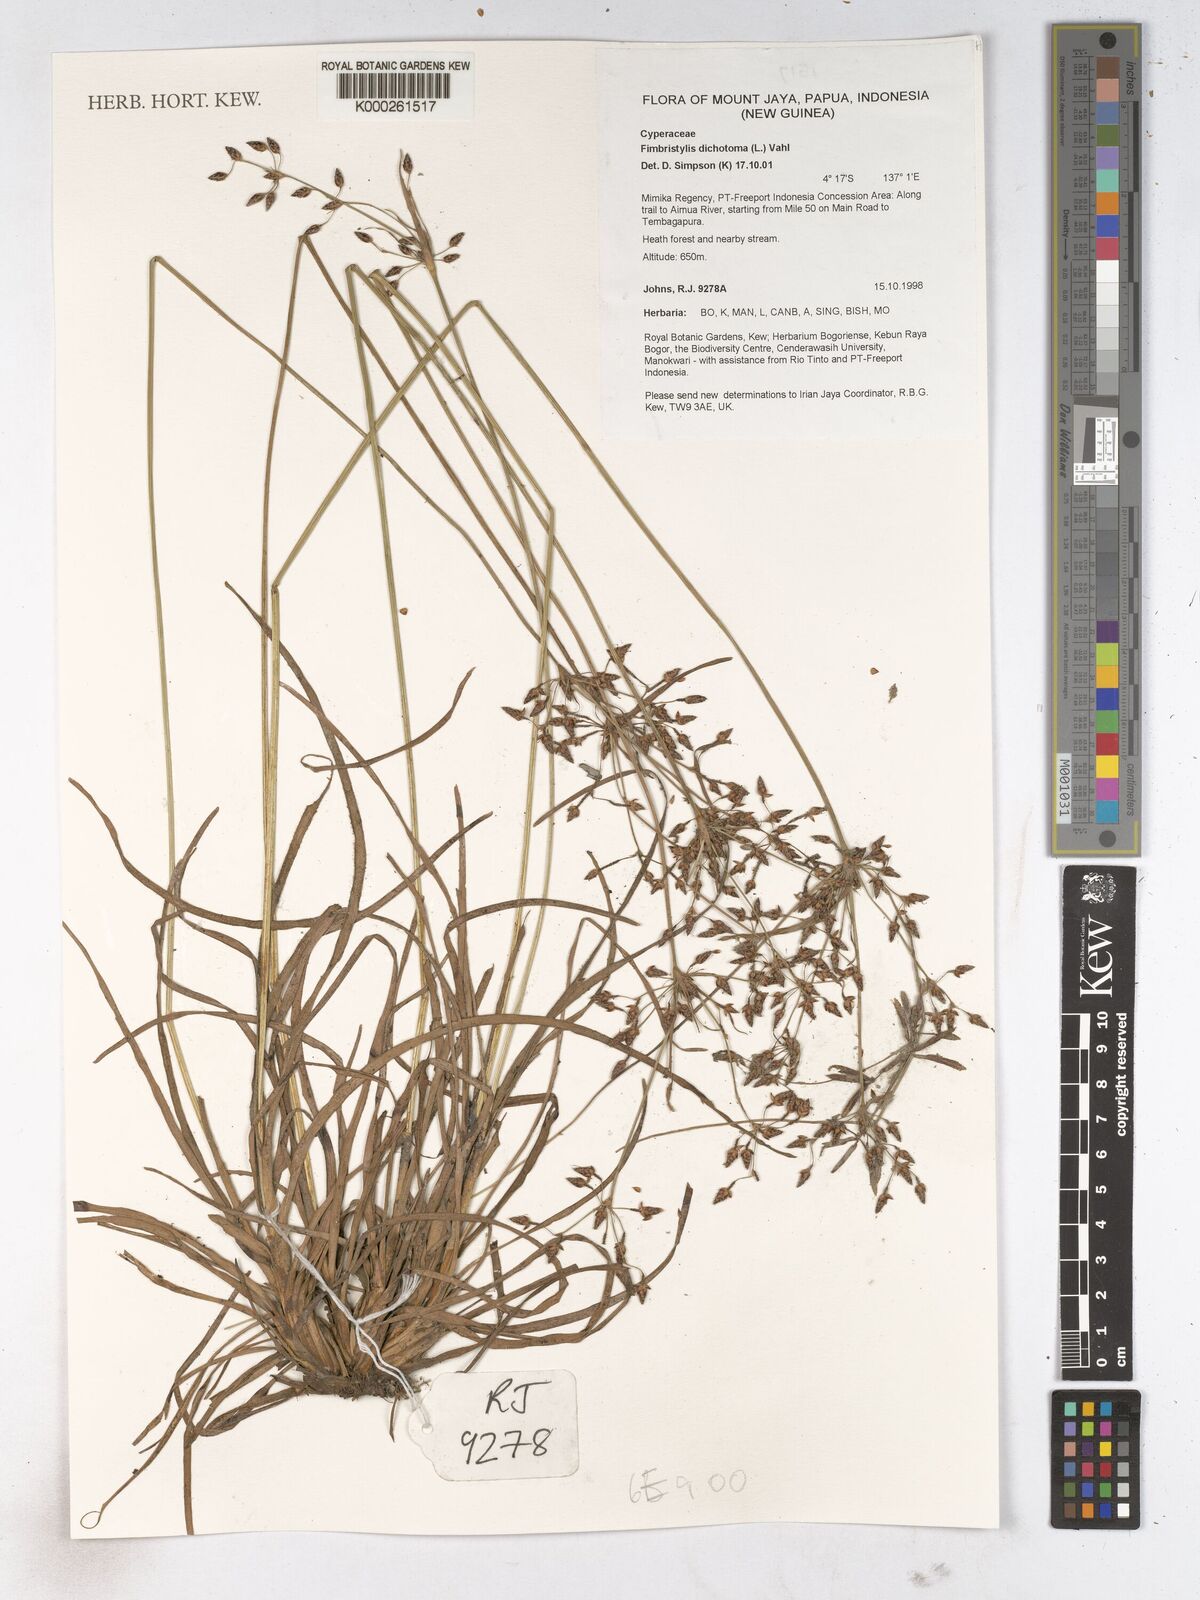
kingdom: Plantae
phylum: Tracheophyta
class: Liliopsida
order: Poales
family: Cyperaceae
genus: Fimbristylis
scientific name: Fimbristylis dichotoma
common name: Forked fimbry
